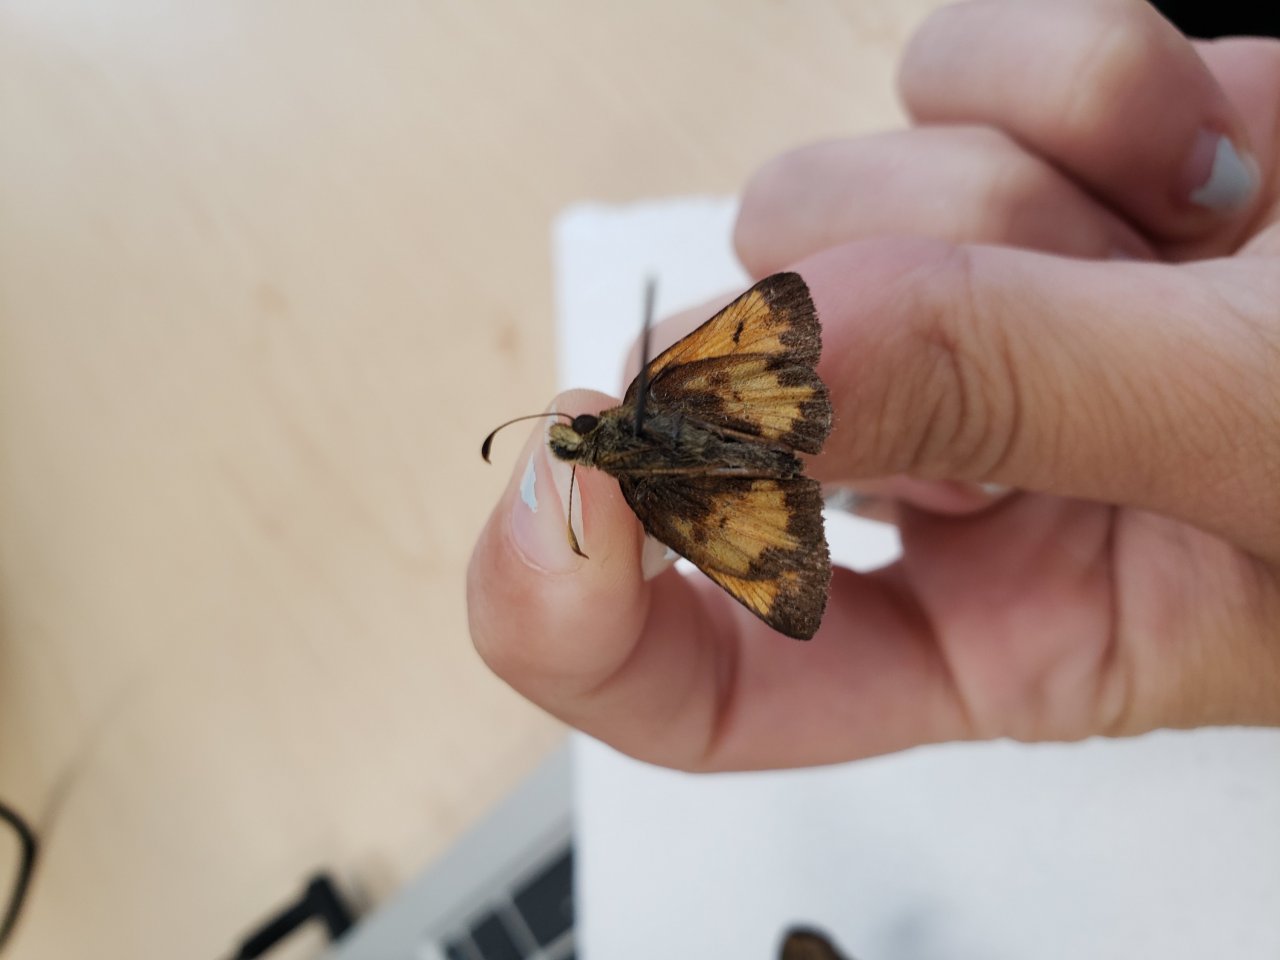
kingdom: Animalia
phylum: Arthropoda
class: Insecta
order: Lepidoptera
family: Hesperiidae
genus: Lon
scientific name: Lon hobomok
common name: Hobomok Skipper
